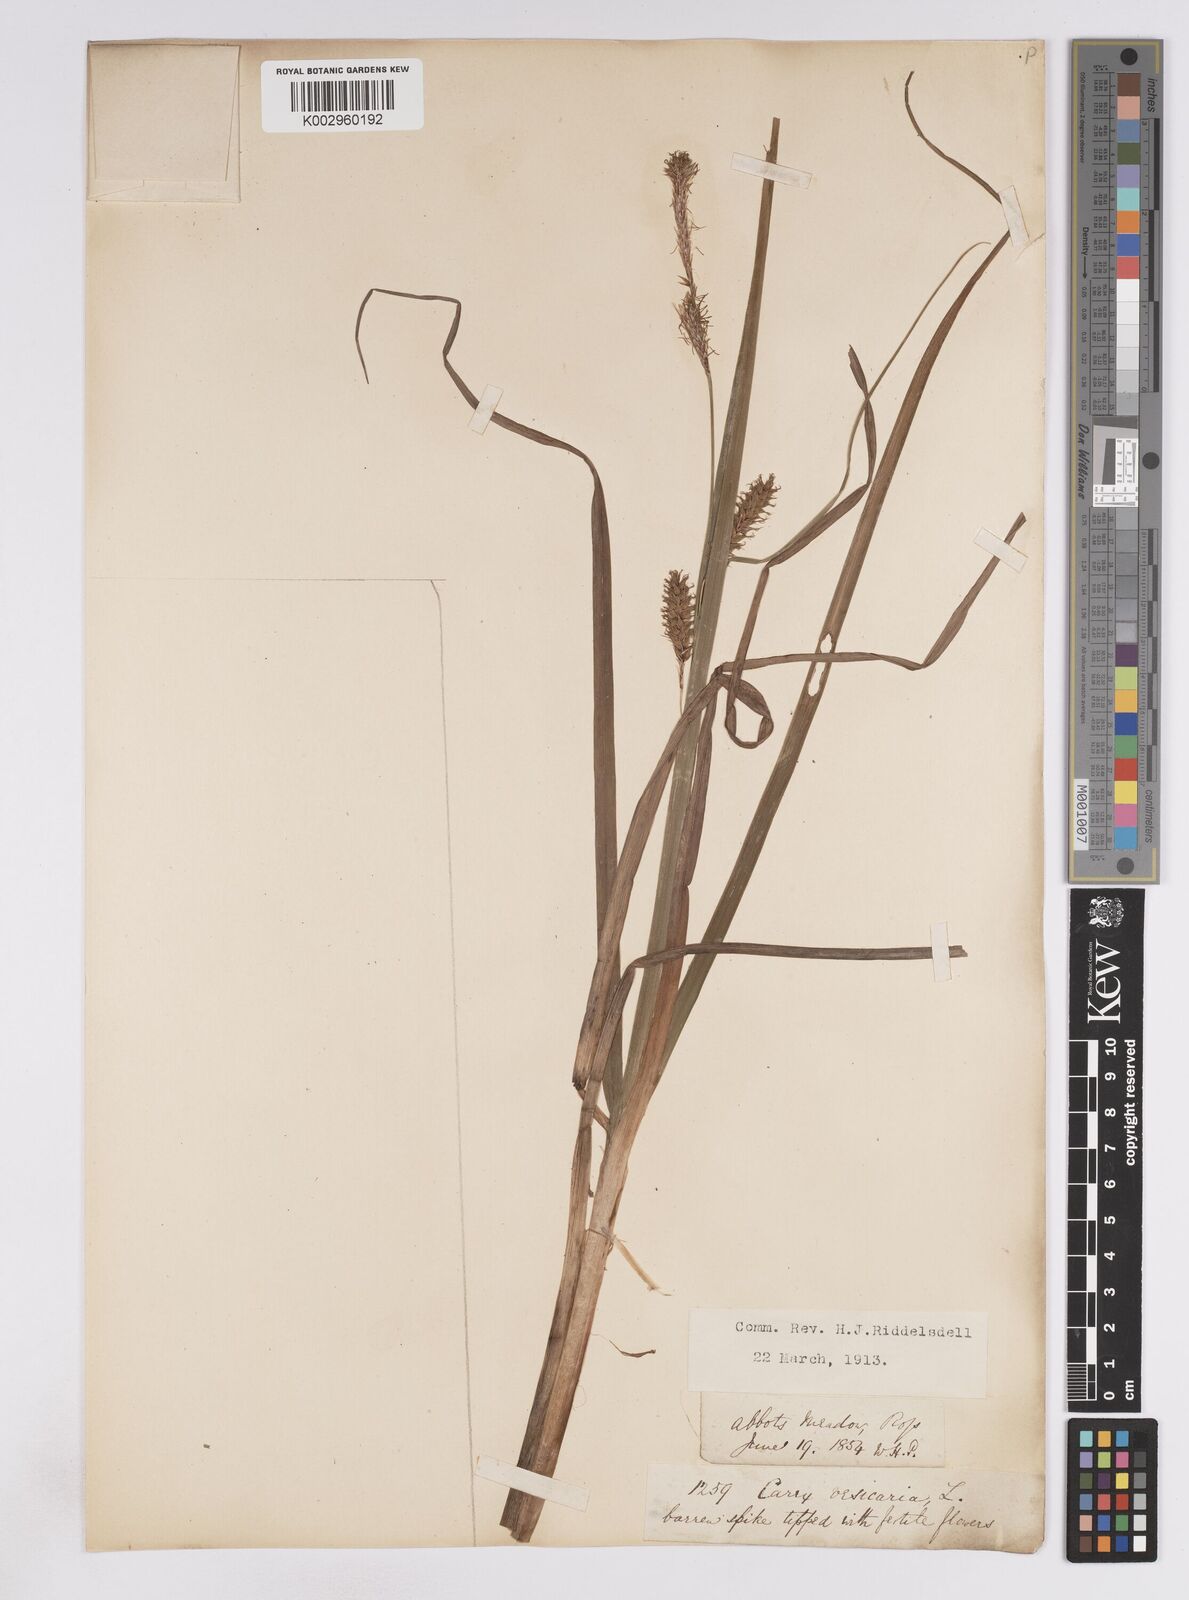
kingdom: Plantae
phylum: Tracheophyta
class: Liliopsida
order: Poales
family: Cyperaceae
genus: Carex
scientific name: Carex vesicaria
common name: Bladder-sedge
